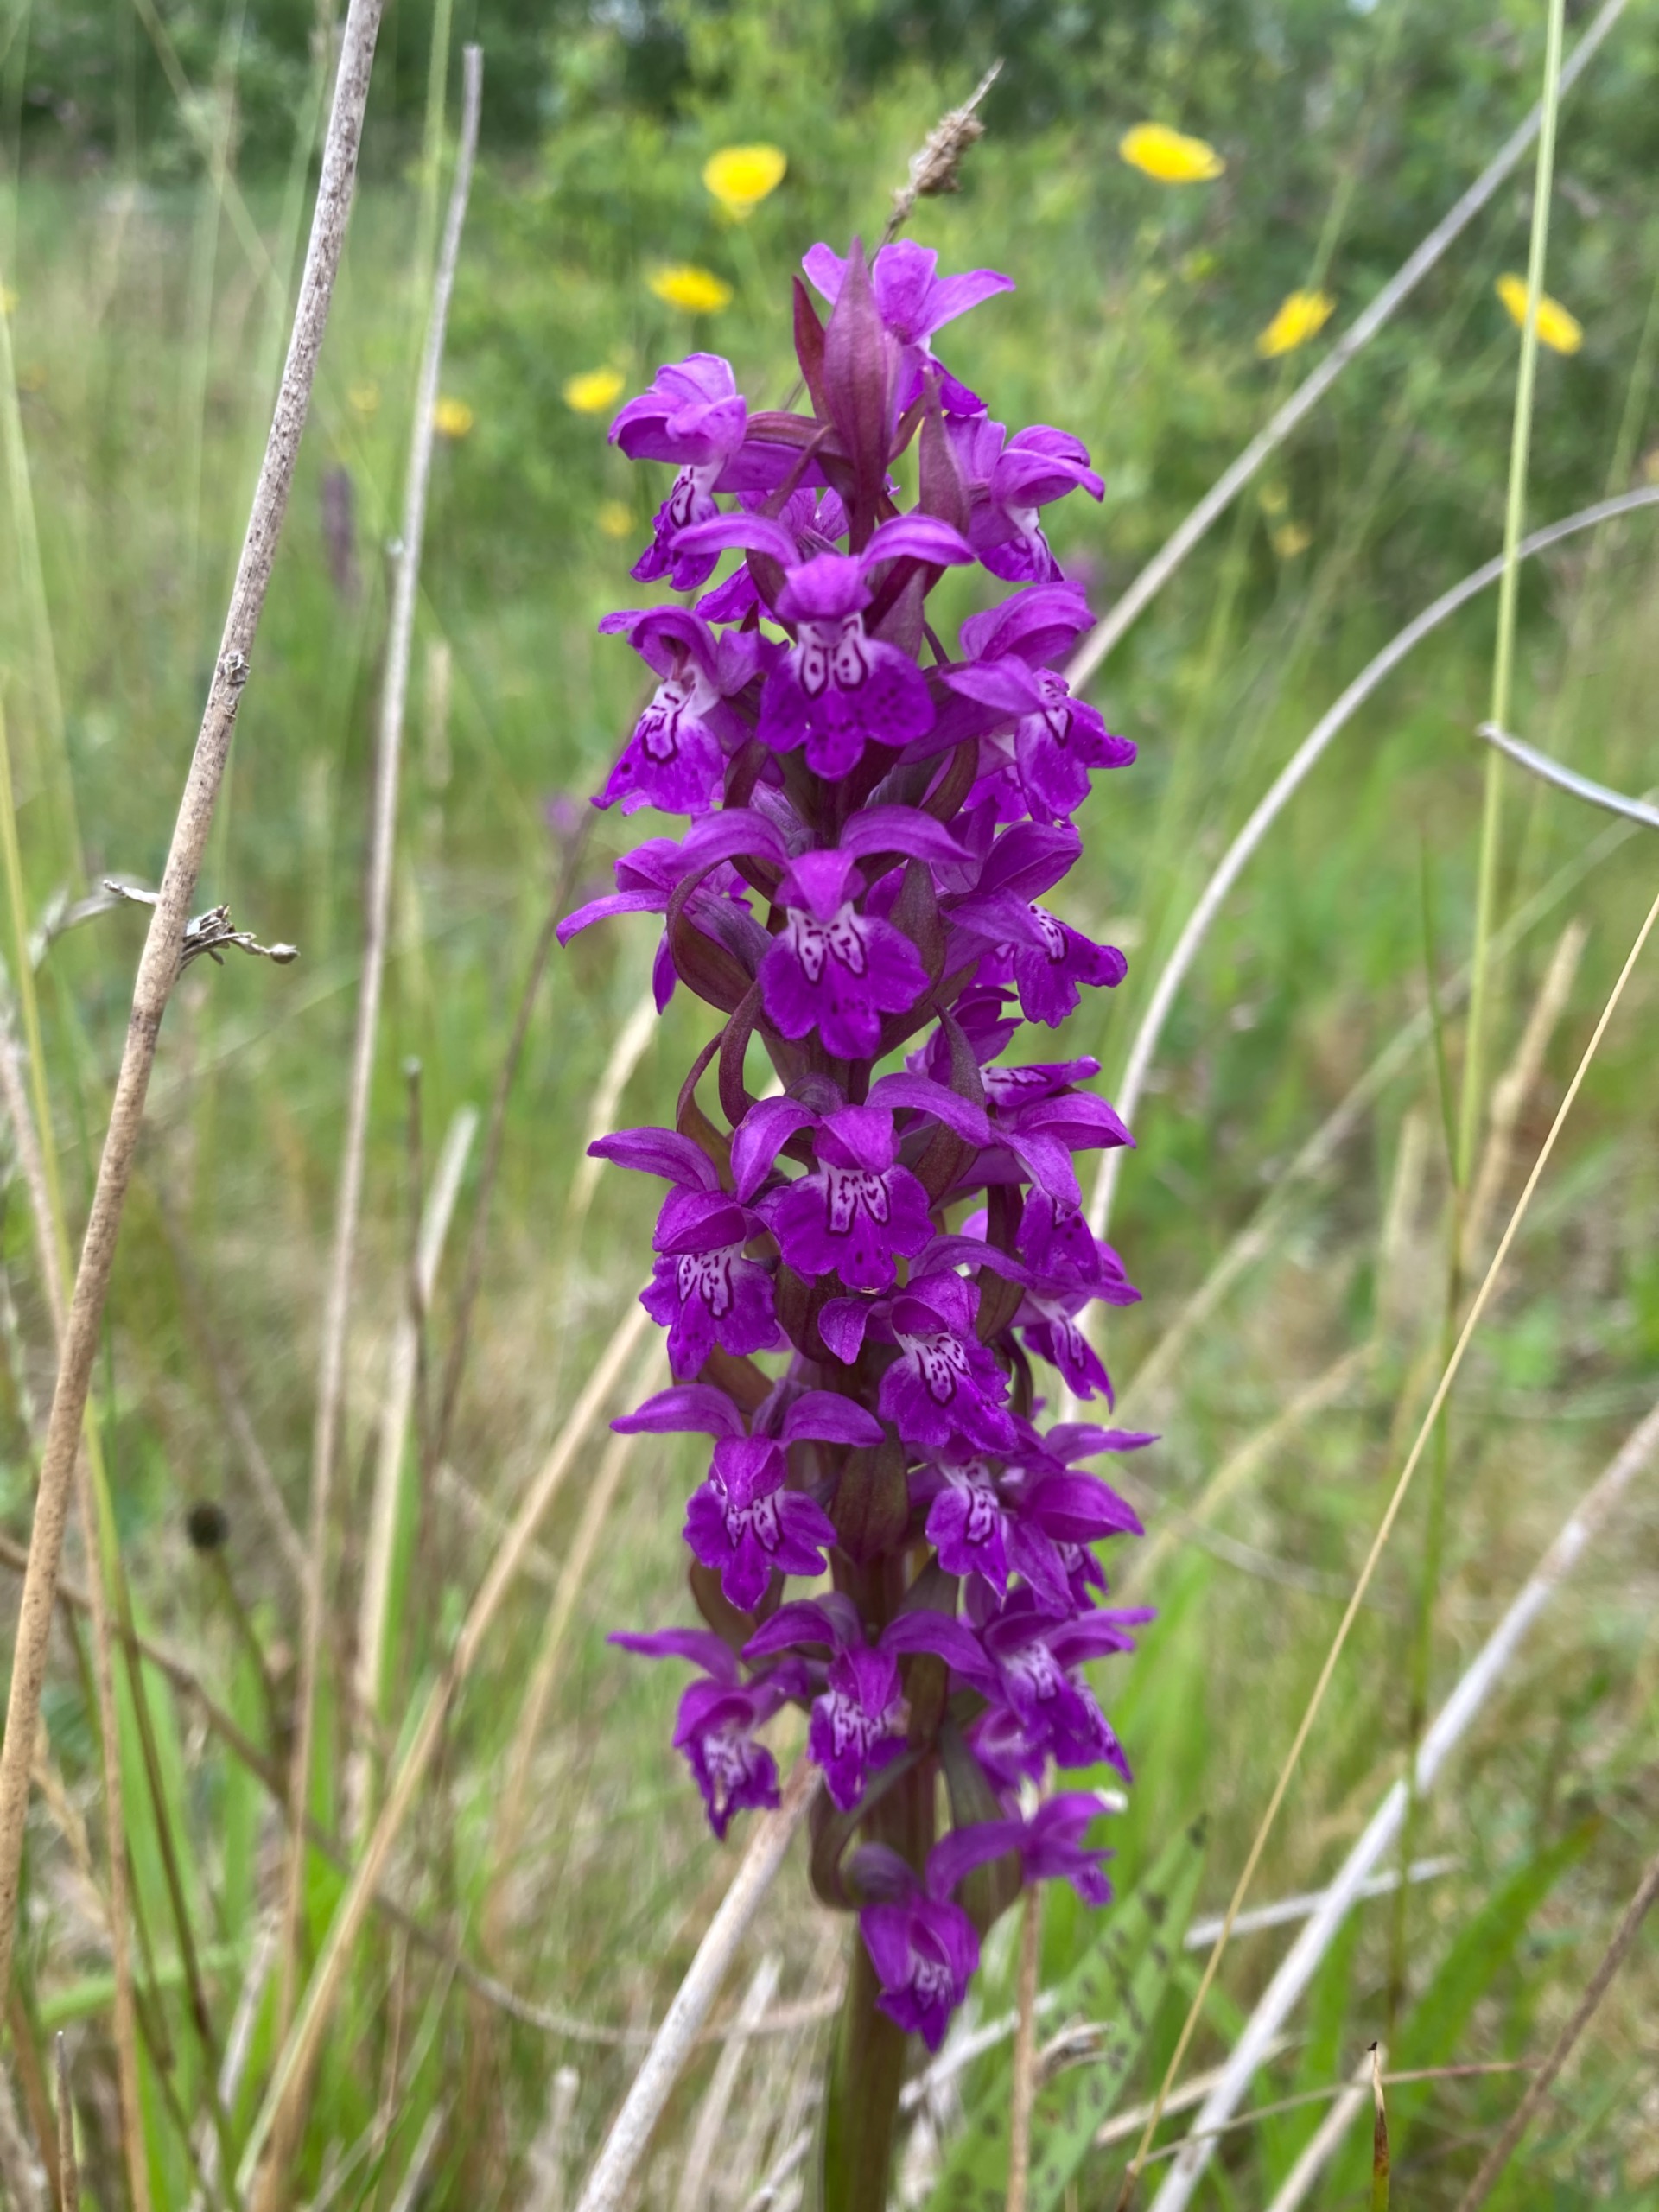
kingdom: Plantae
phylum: Tracheophyta
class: Liliopsida
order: Asparagales
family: Orchidaceae
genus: Dactylorhiza
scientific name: Dactylorhiza majalis
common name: Maj-gøgeurt
